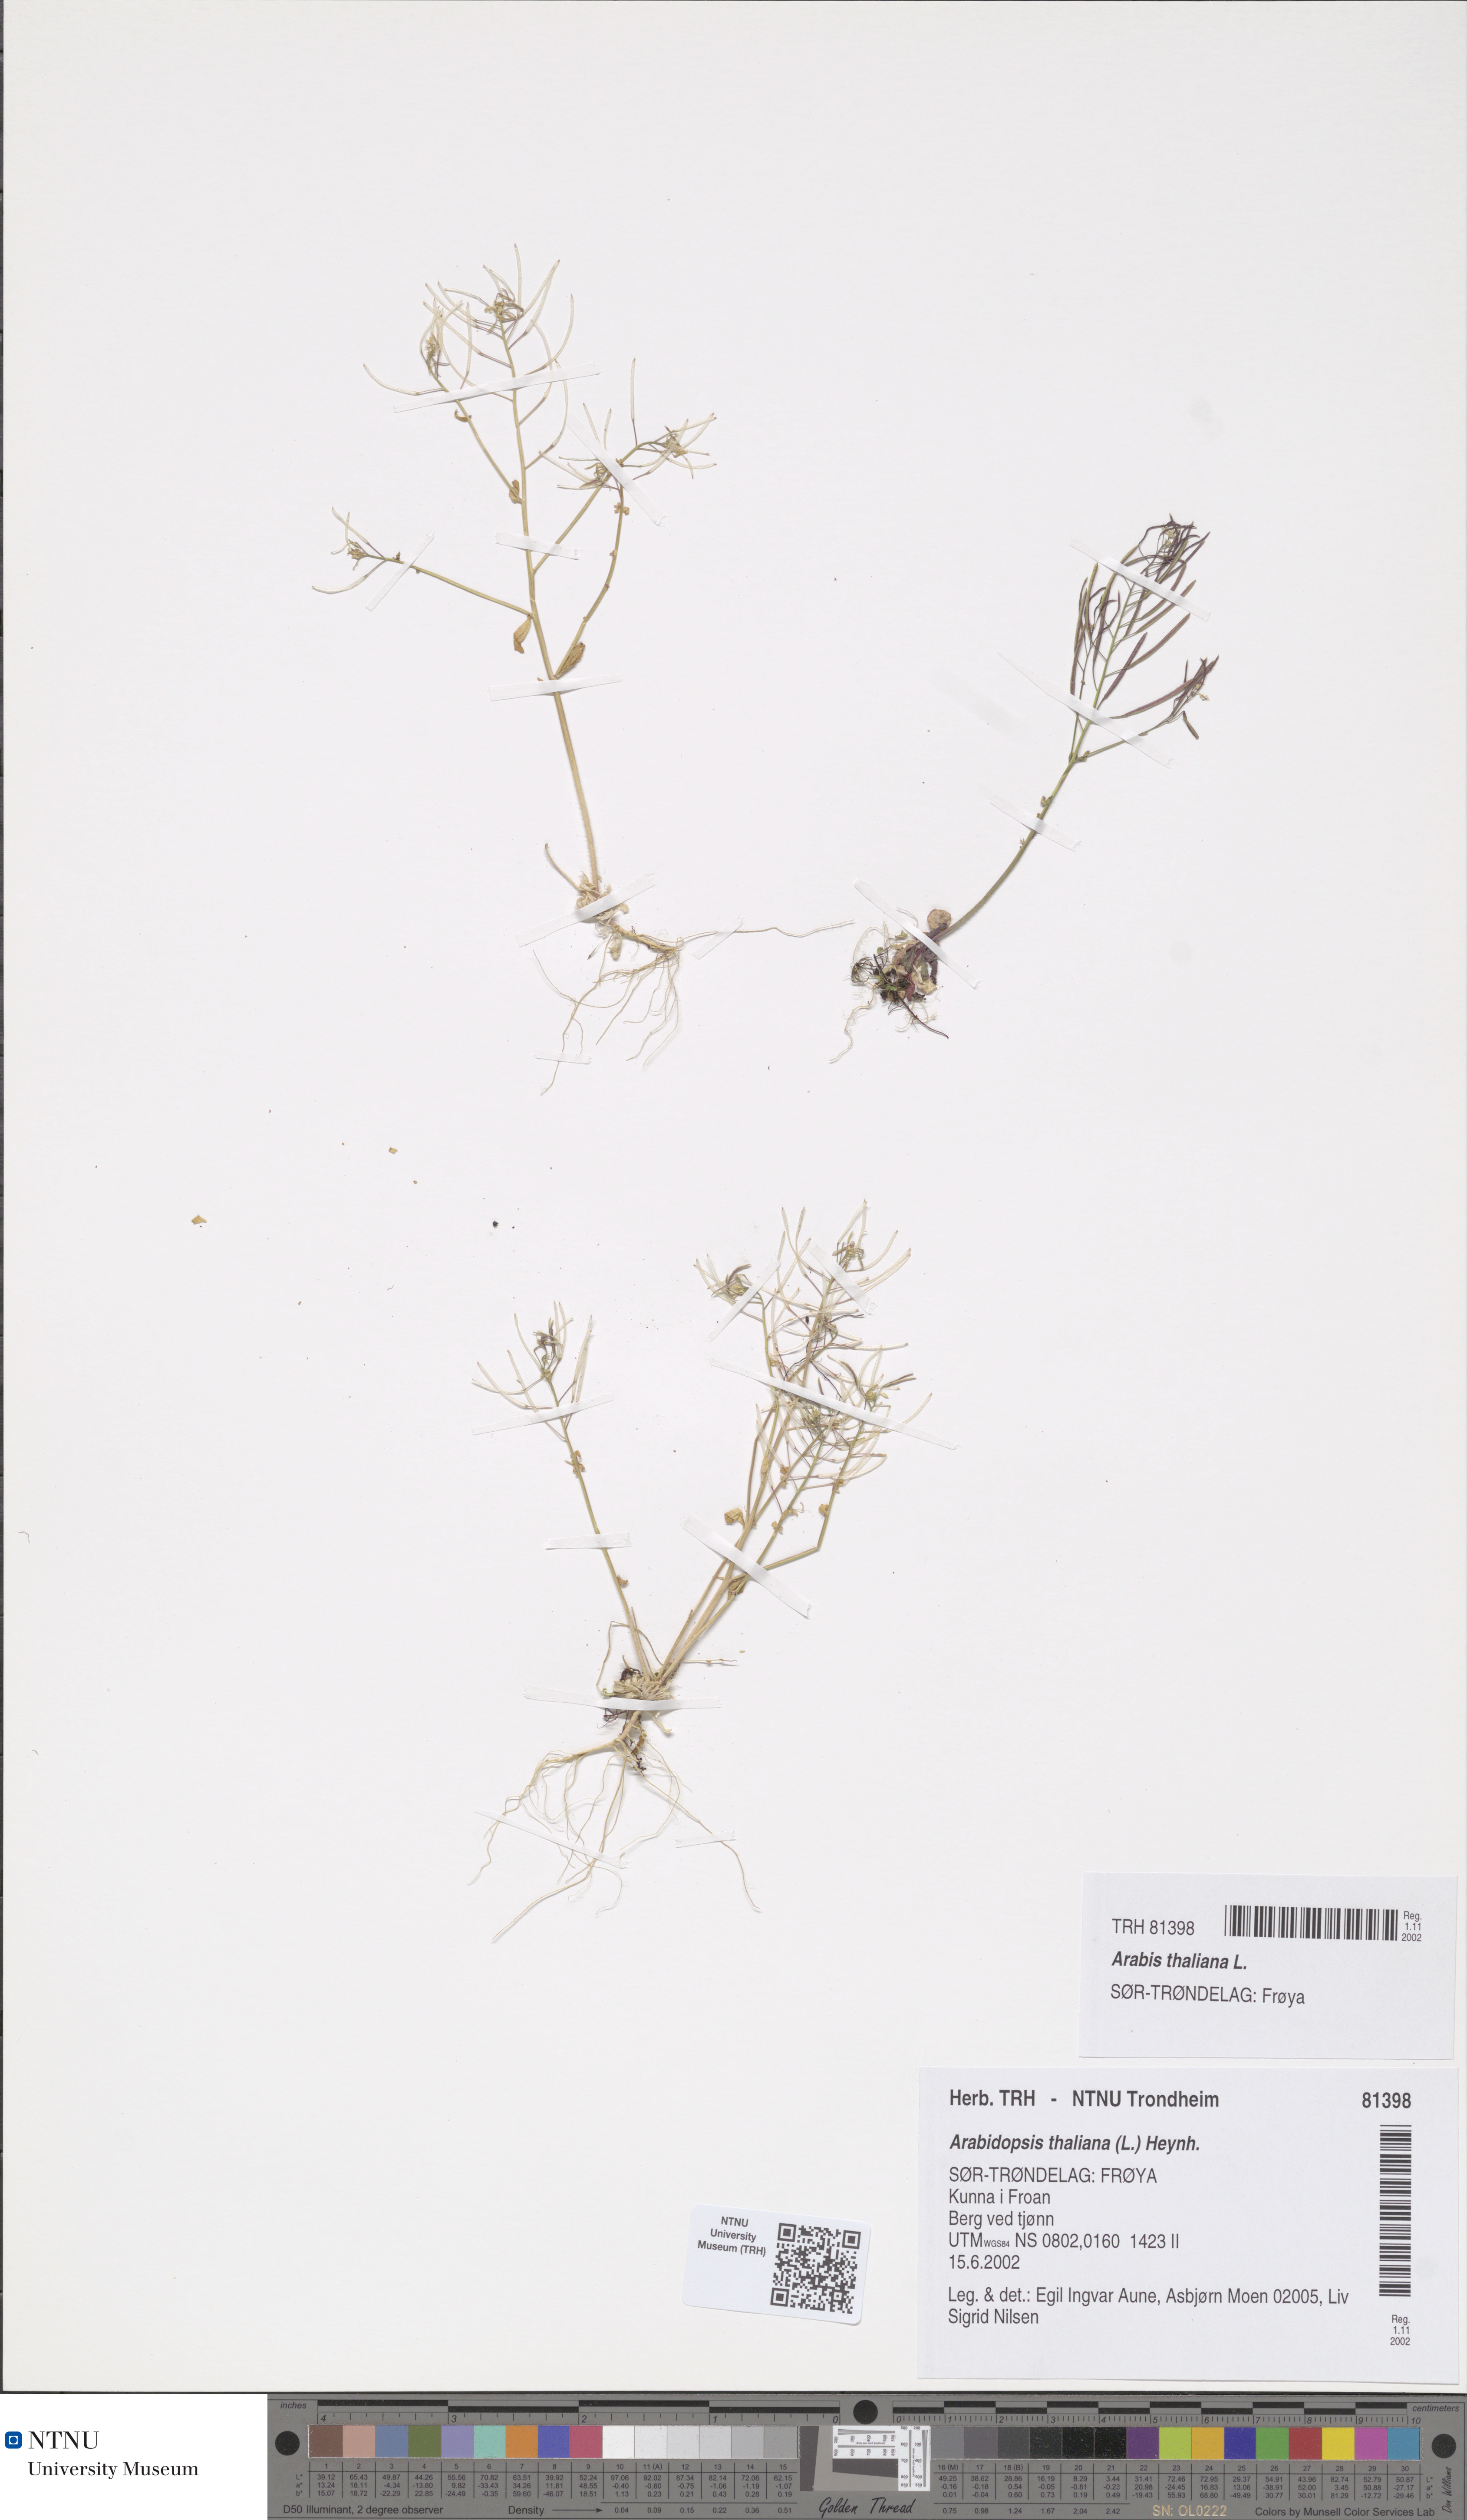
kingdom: Plantae
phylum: Tracheophyta
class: Magnoliopsida
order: Brassicales
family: Brassicaceae
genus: Arabidopsis
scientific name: Arabidopsis thaliana
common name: Thale cress
